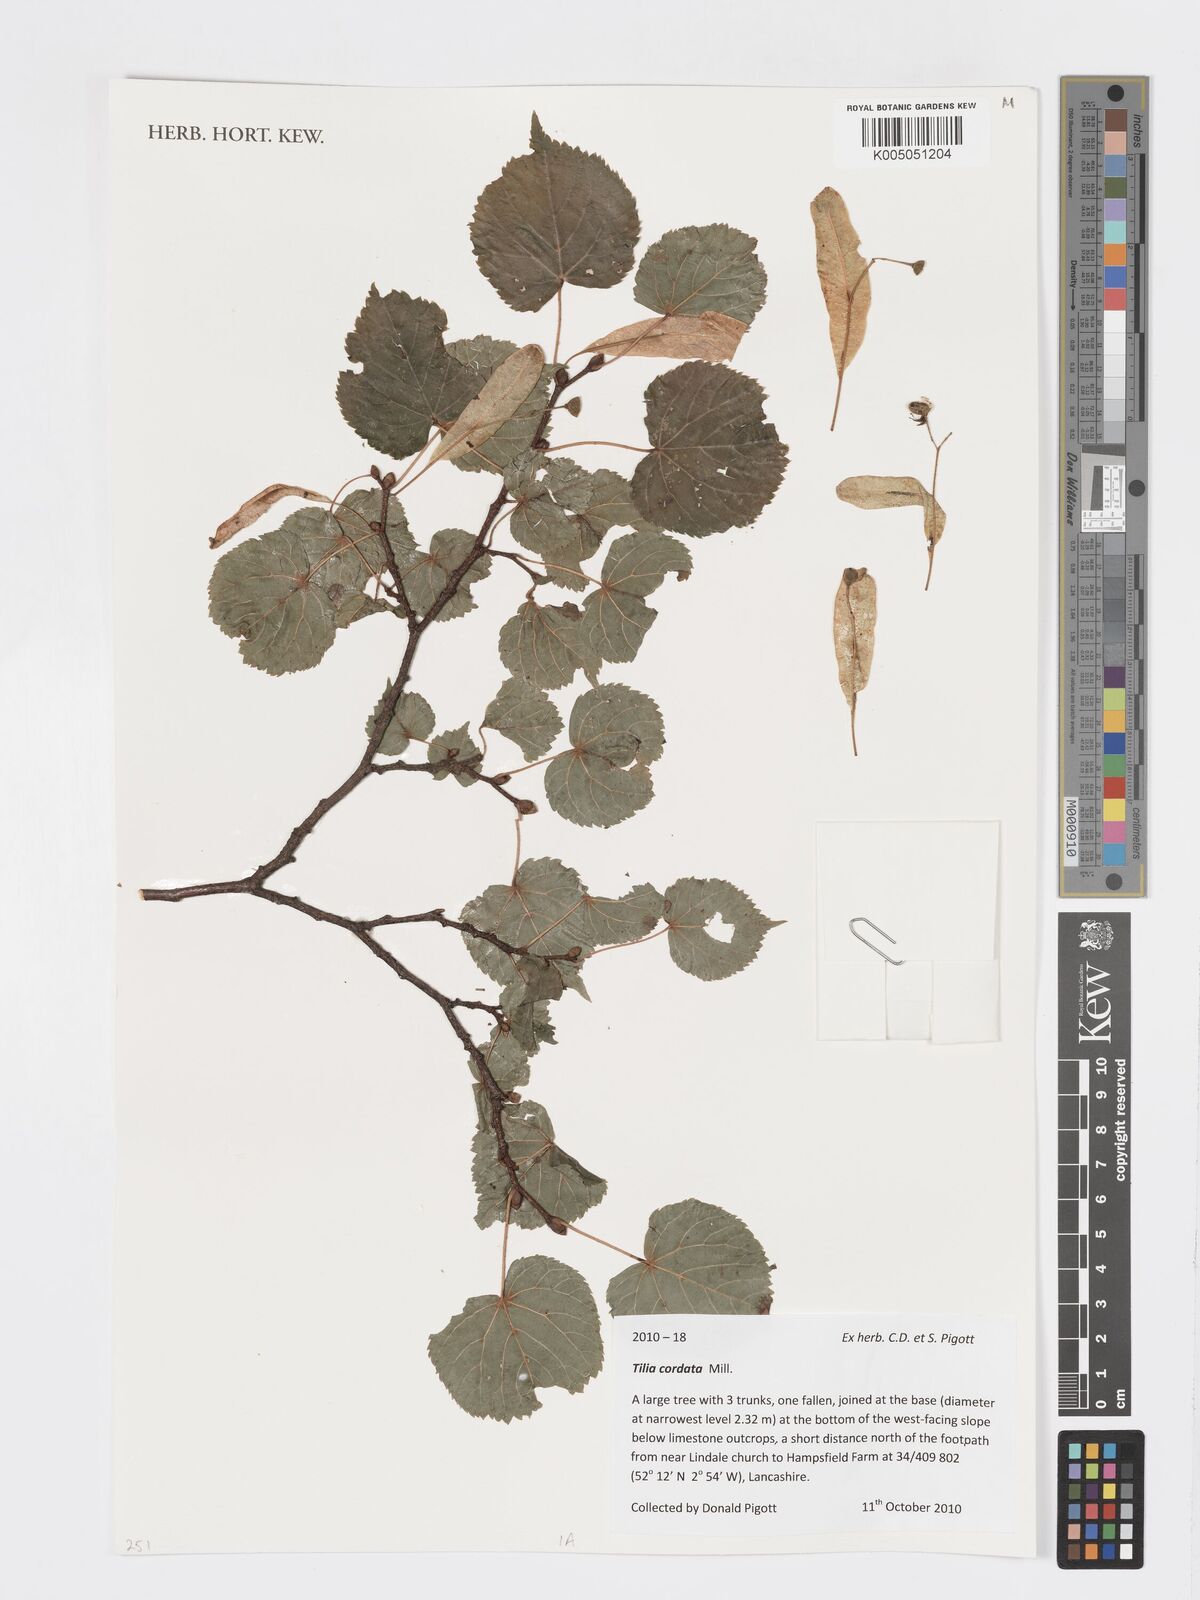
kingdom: Plantae
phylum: Tracheophyta
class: Magnoliopsida
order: Malvales
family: Malvaceae
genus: Tilia
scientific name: Tilia cordata
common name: Small-leaved lime
